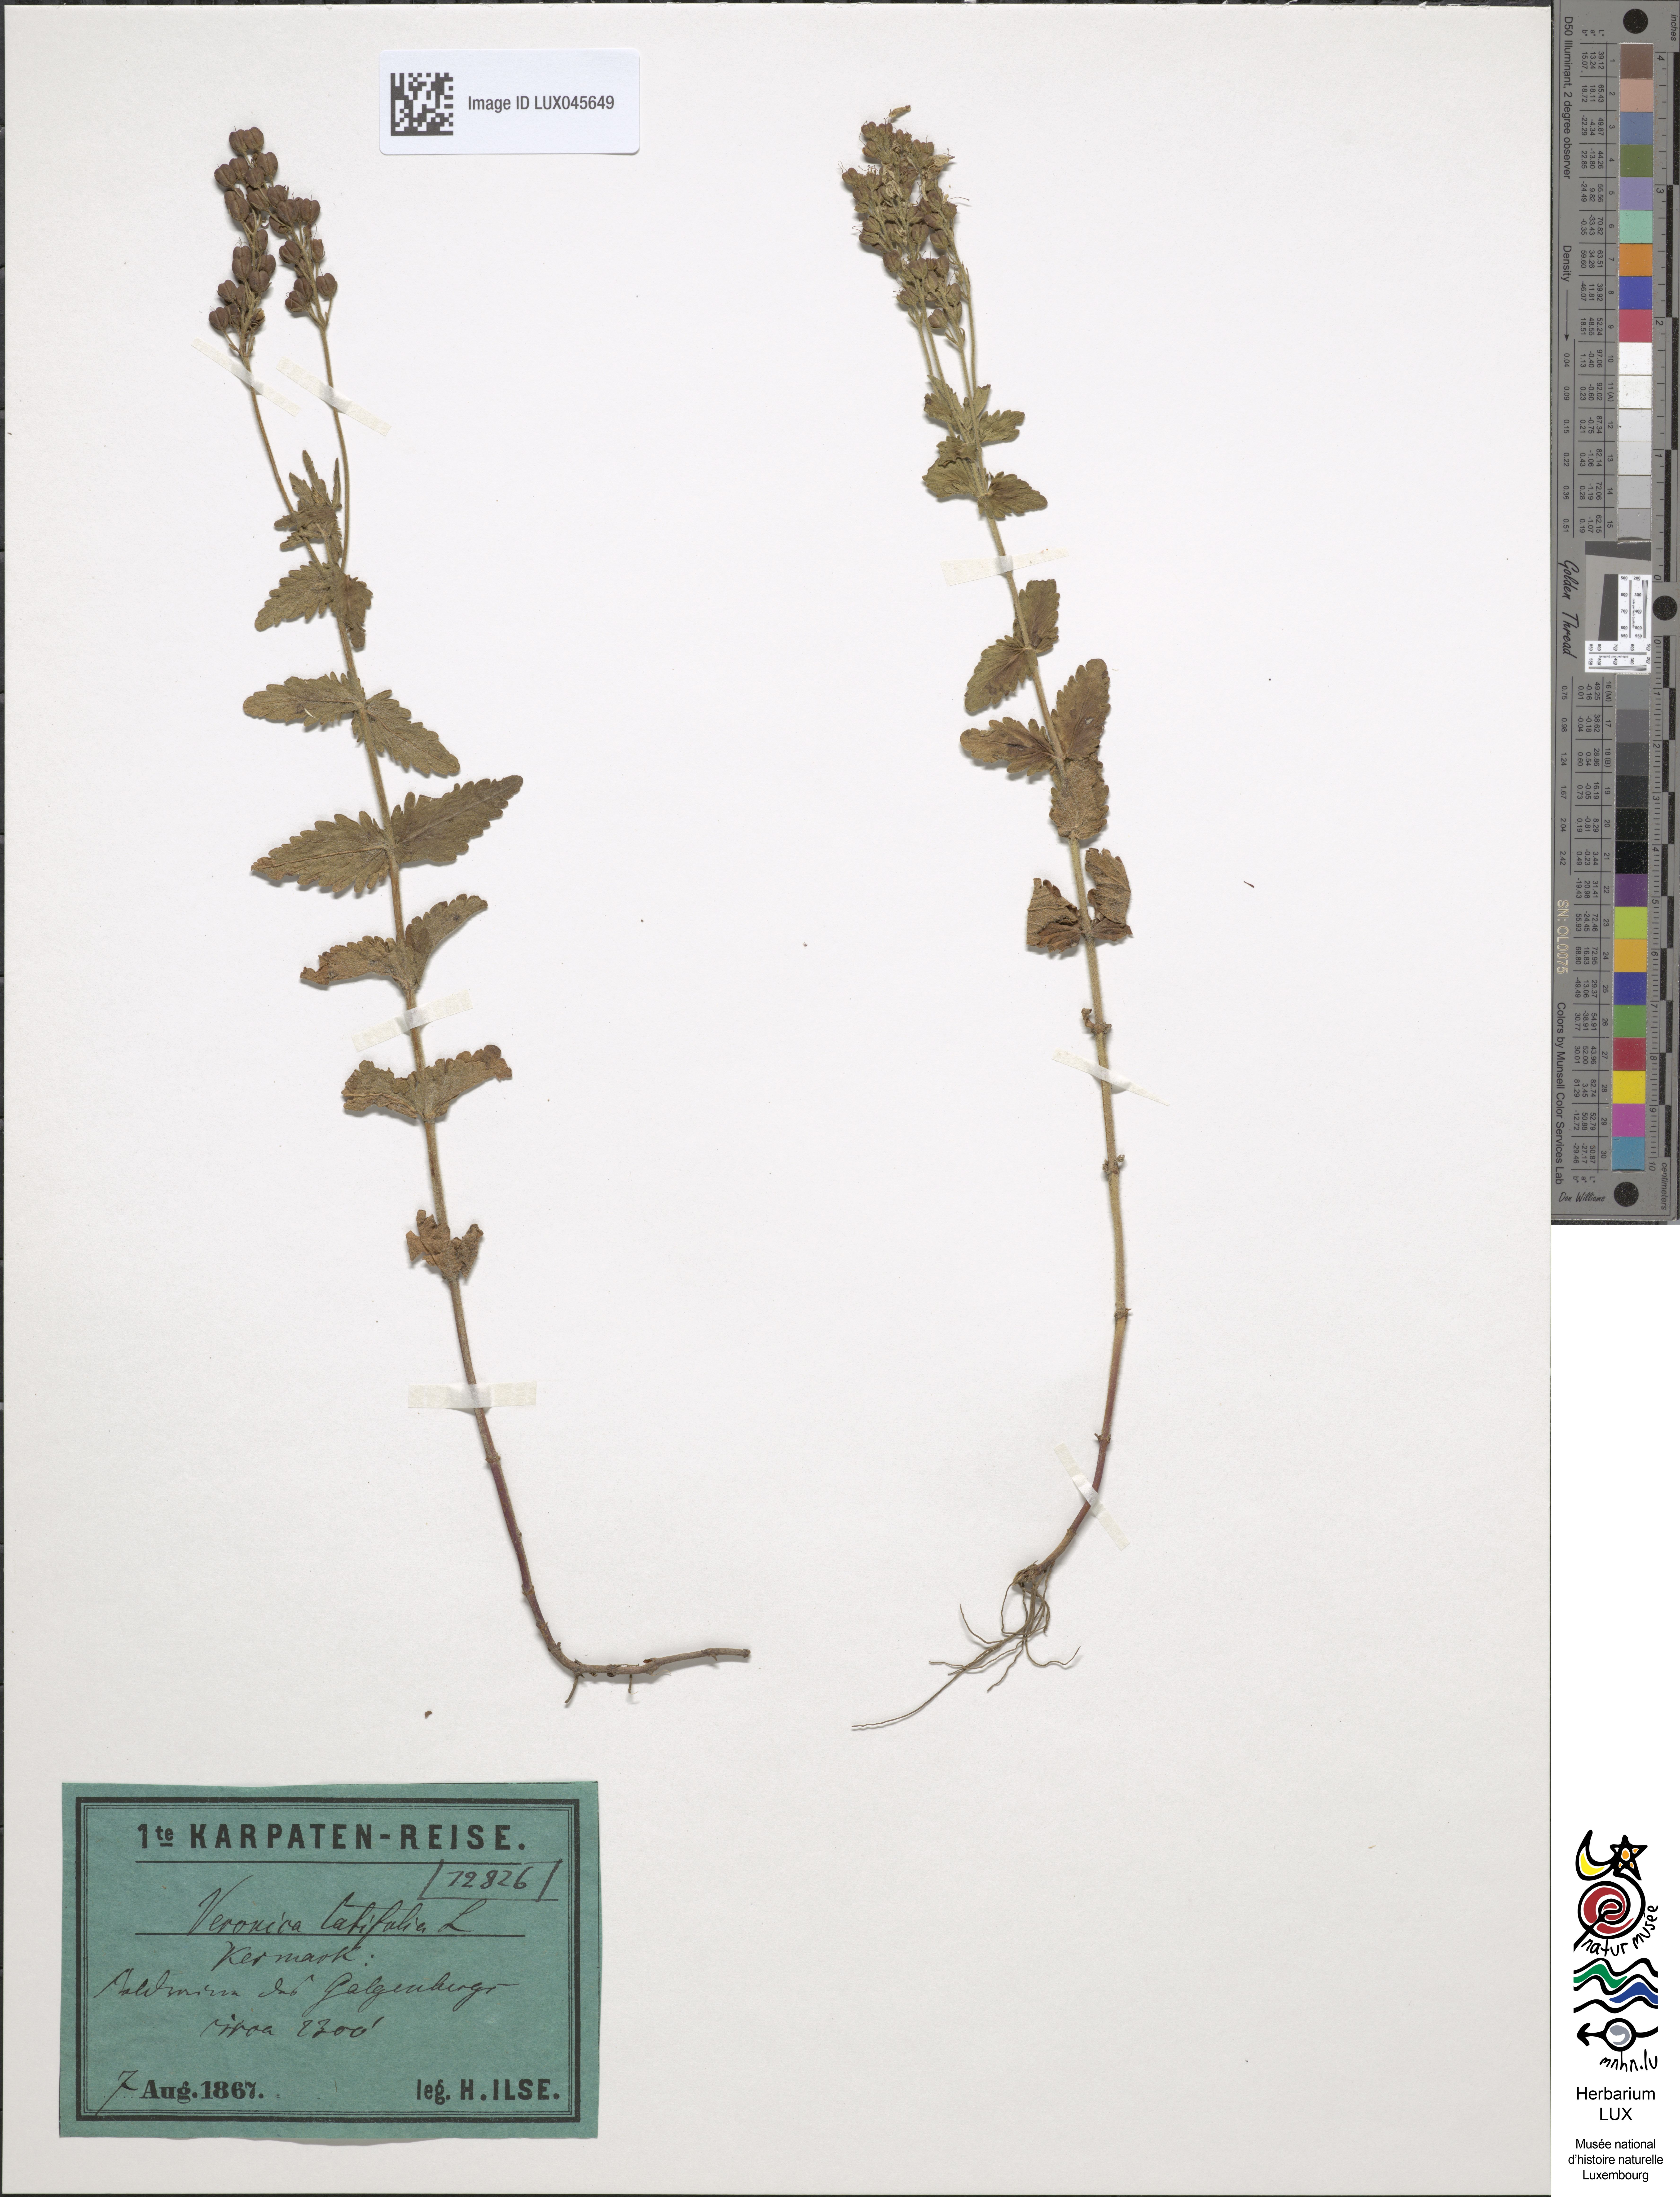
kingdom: Plantae
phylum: Tracheophyta
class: Magnoliopsida
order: Lamiales
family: Plantaginaceae
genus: Veronica
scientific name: Veronica urticifolia
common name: Nettle-leaf speedwell
